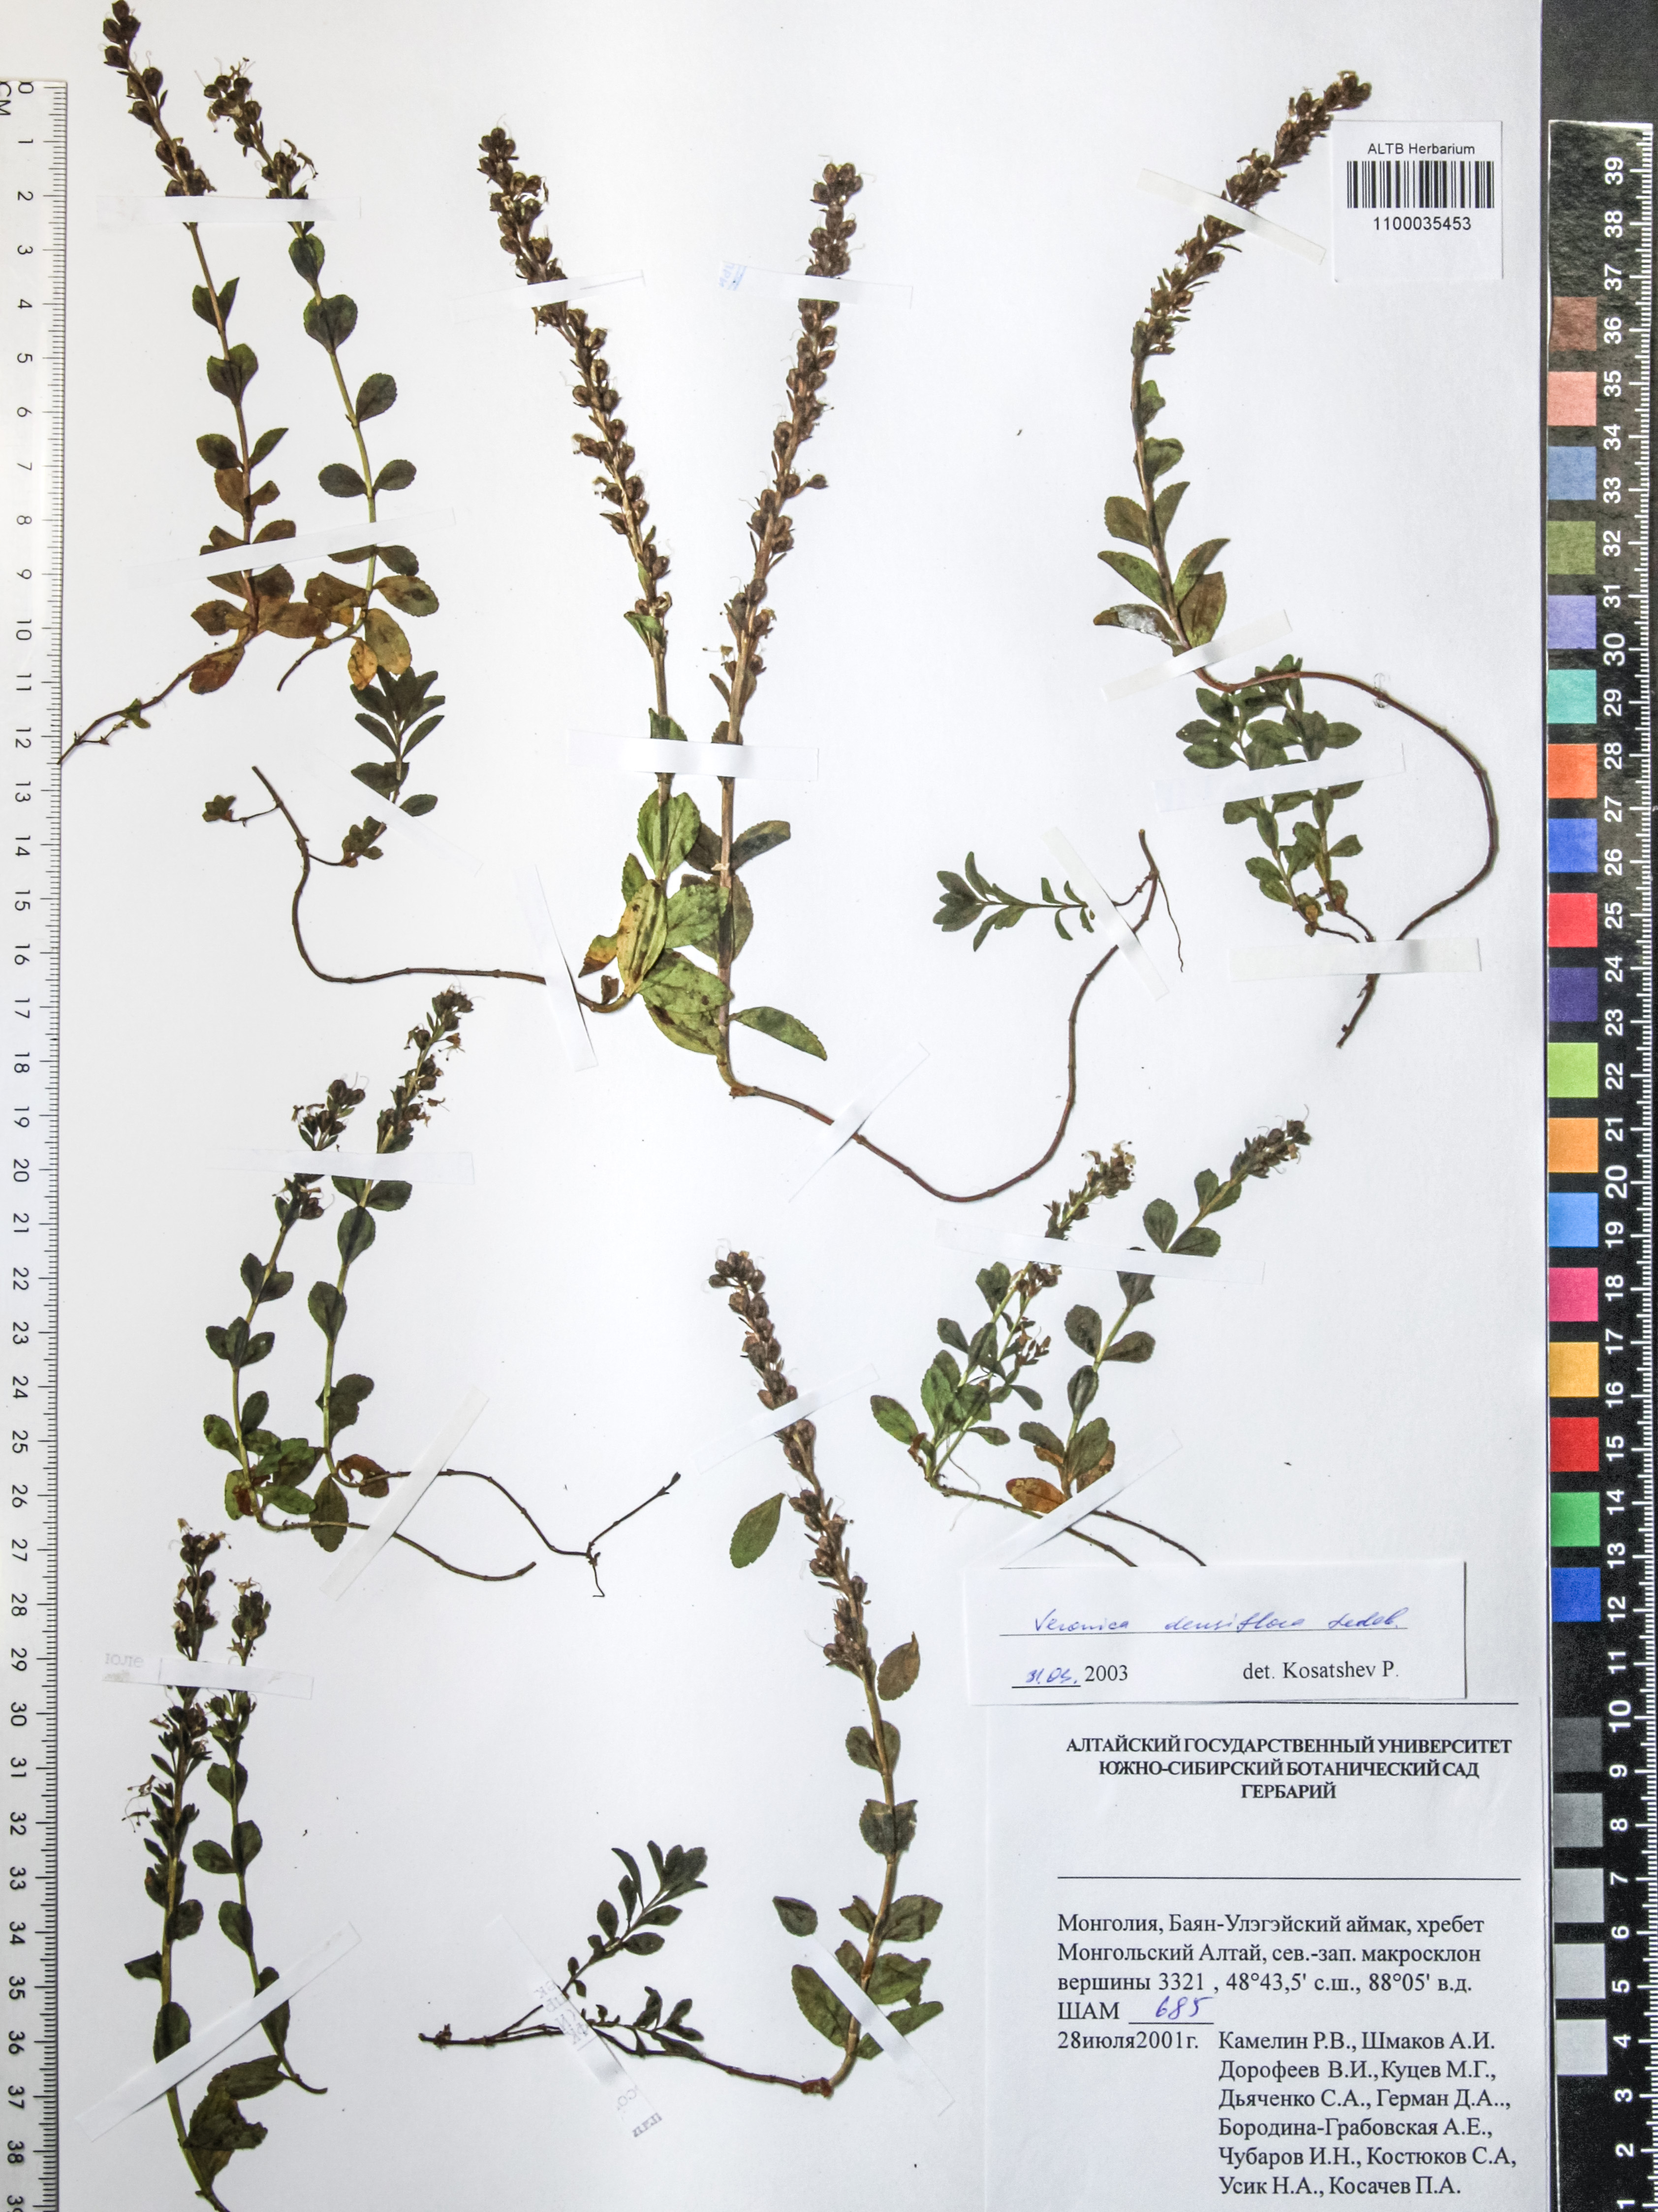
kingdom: Plantae
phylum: Tracheophyta
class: Magnoliopsida
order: Lamiales
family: Plantaginaceae
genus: Veronica
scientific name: Veronica densiflora
